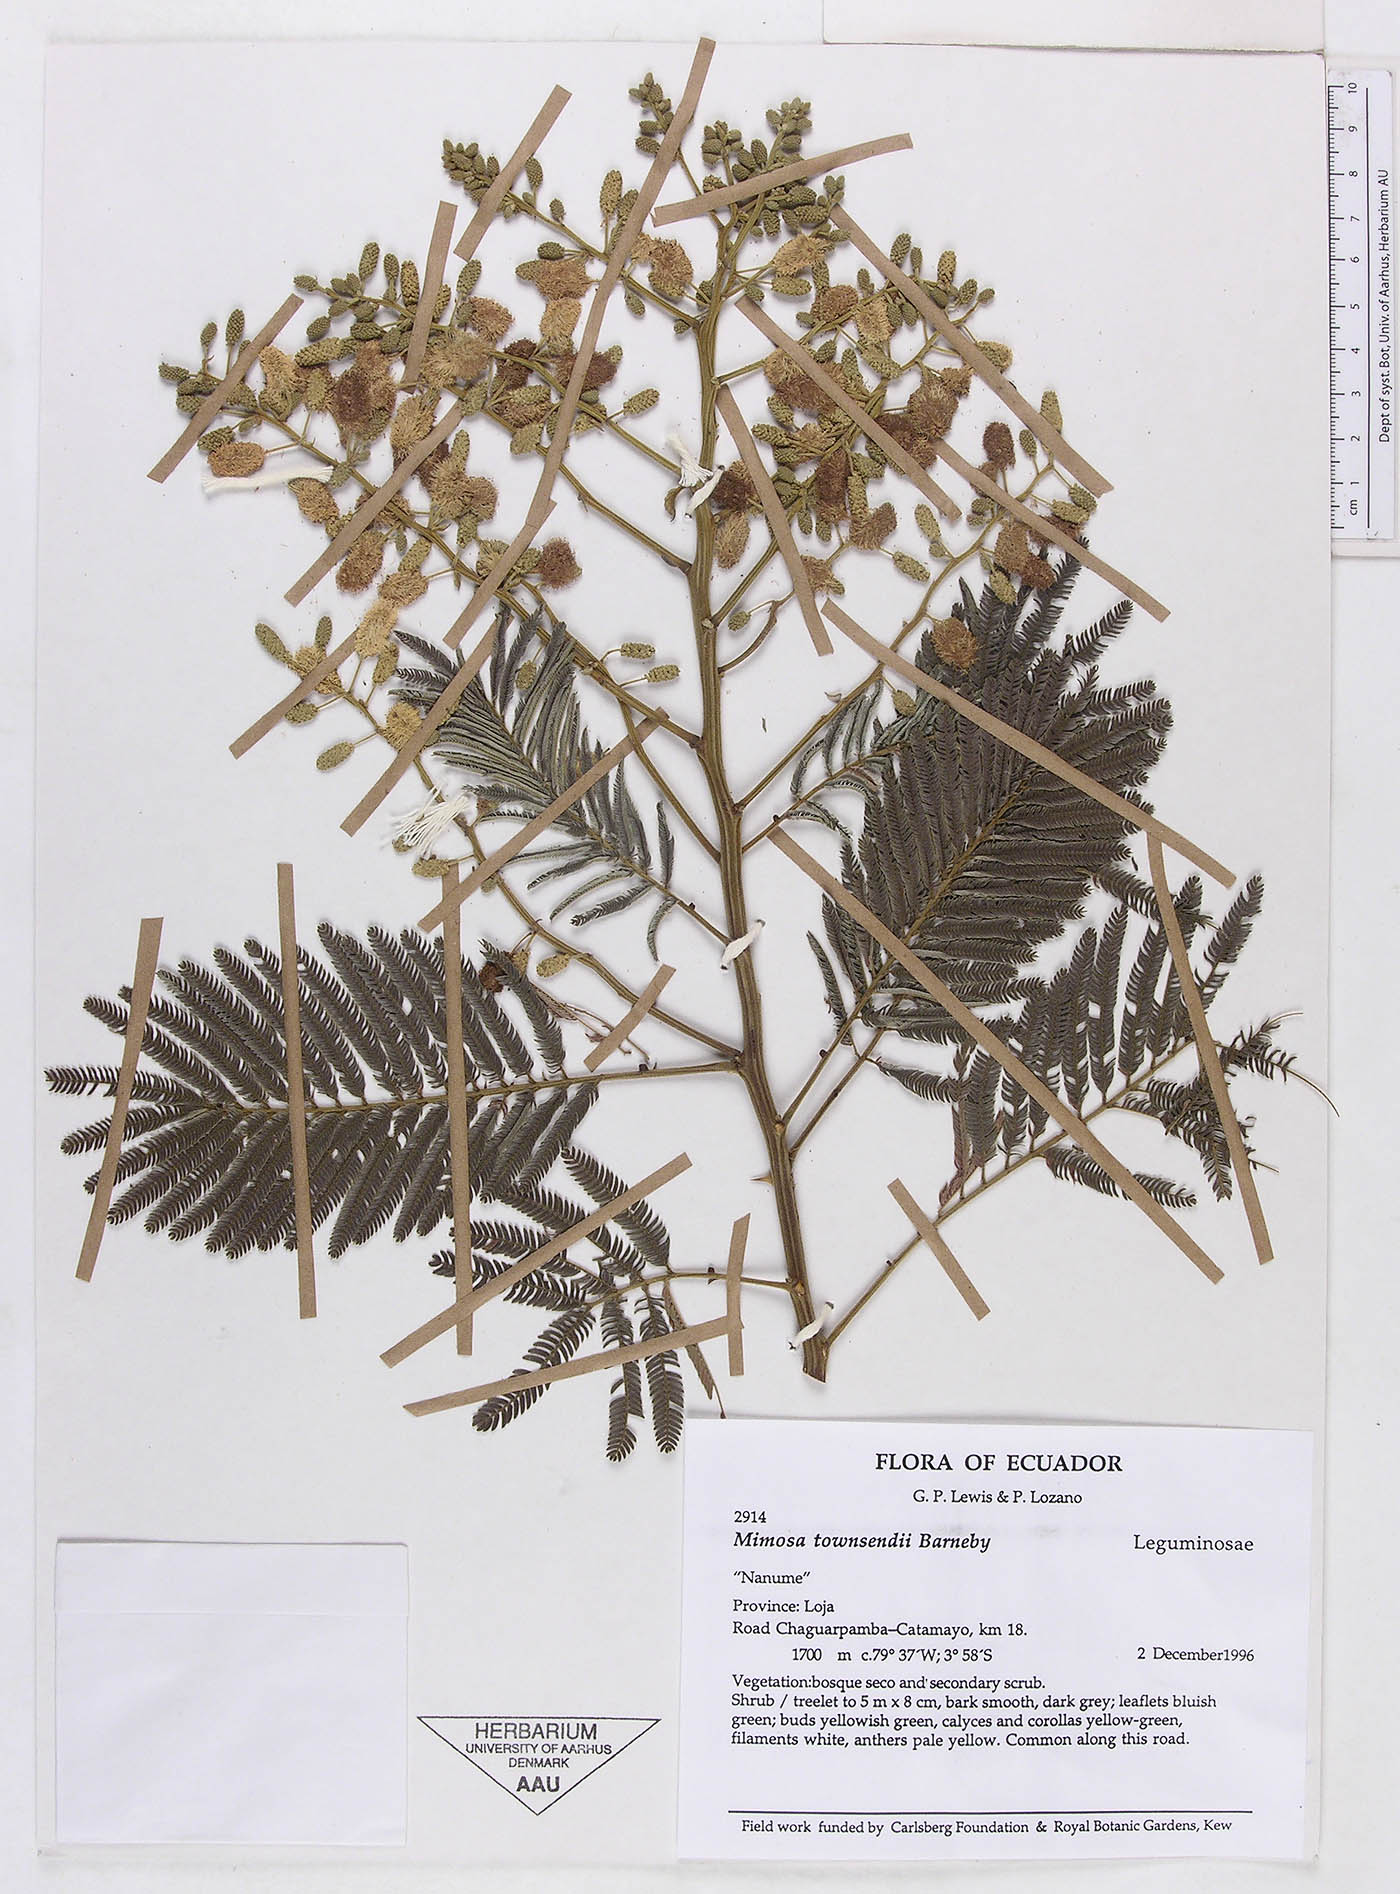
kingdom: Plantae
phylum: Tracheophyta
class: Magnoliopsida
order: Fabales
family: Fabaceae
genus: Mimosa
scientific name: Mimosa townsendii
